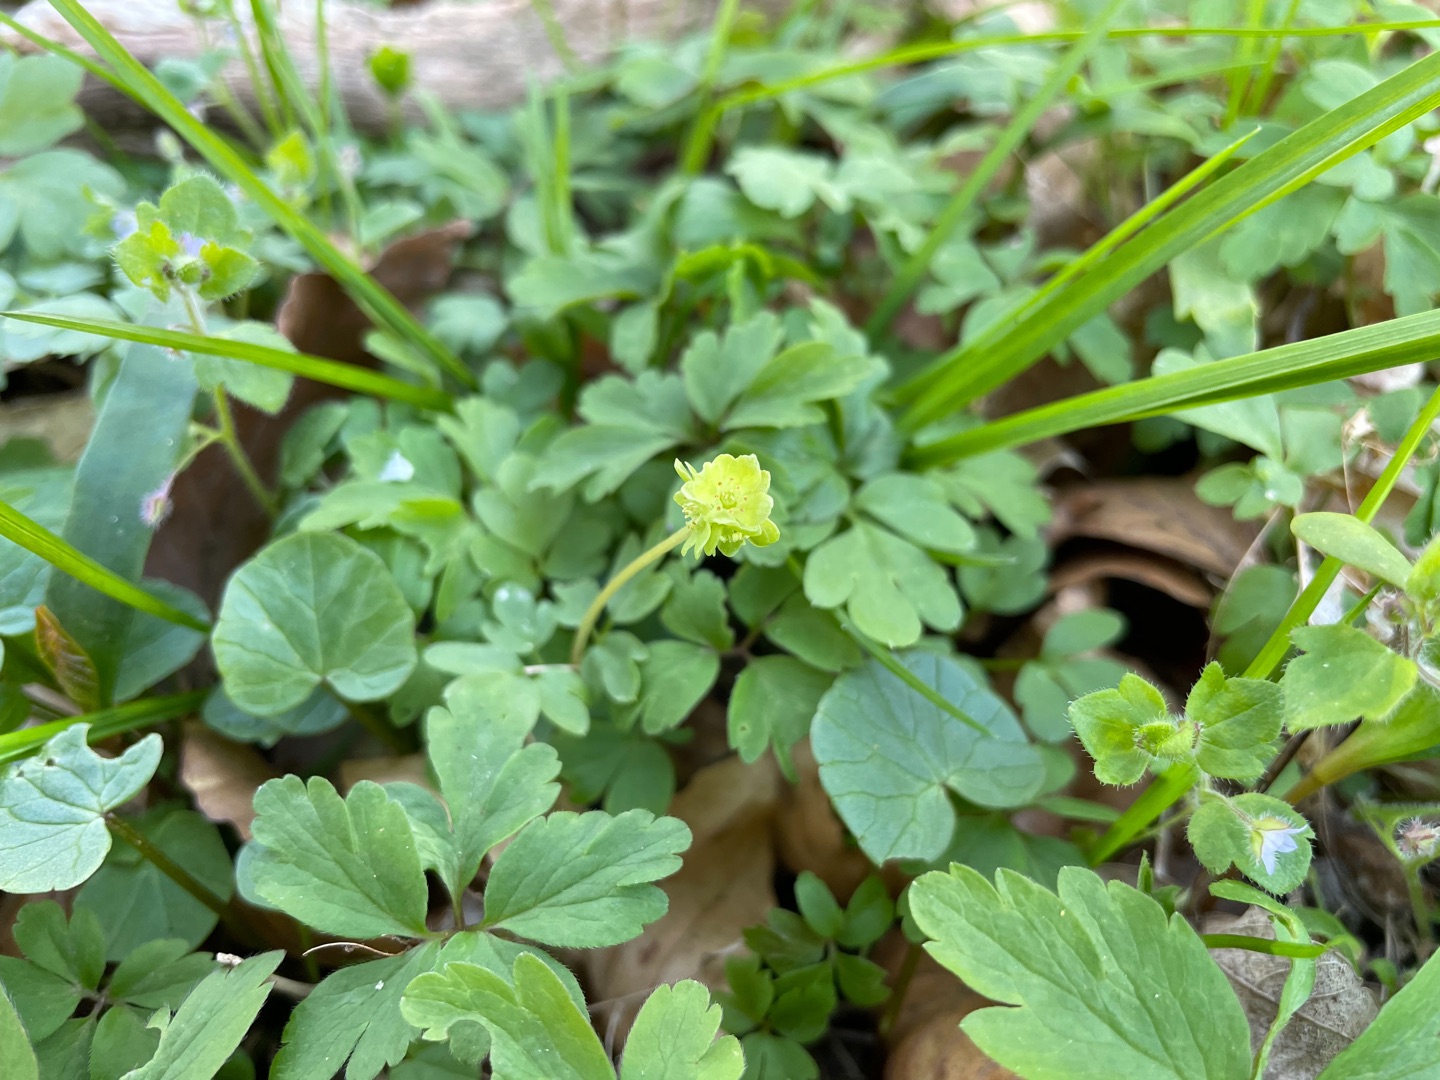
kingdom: Plantae
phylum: Tracheophyta
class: Magnoliopsida
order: Dipsacales
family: Viburnaceae
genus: Adoxa
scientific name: Adoxa moschatellina
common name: Desmerurt
